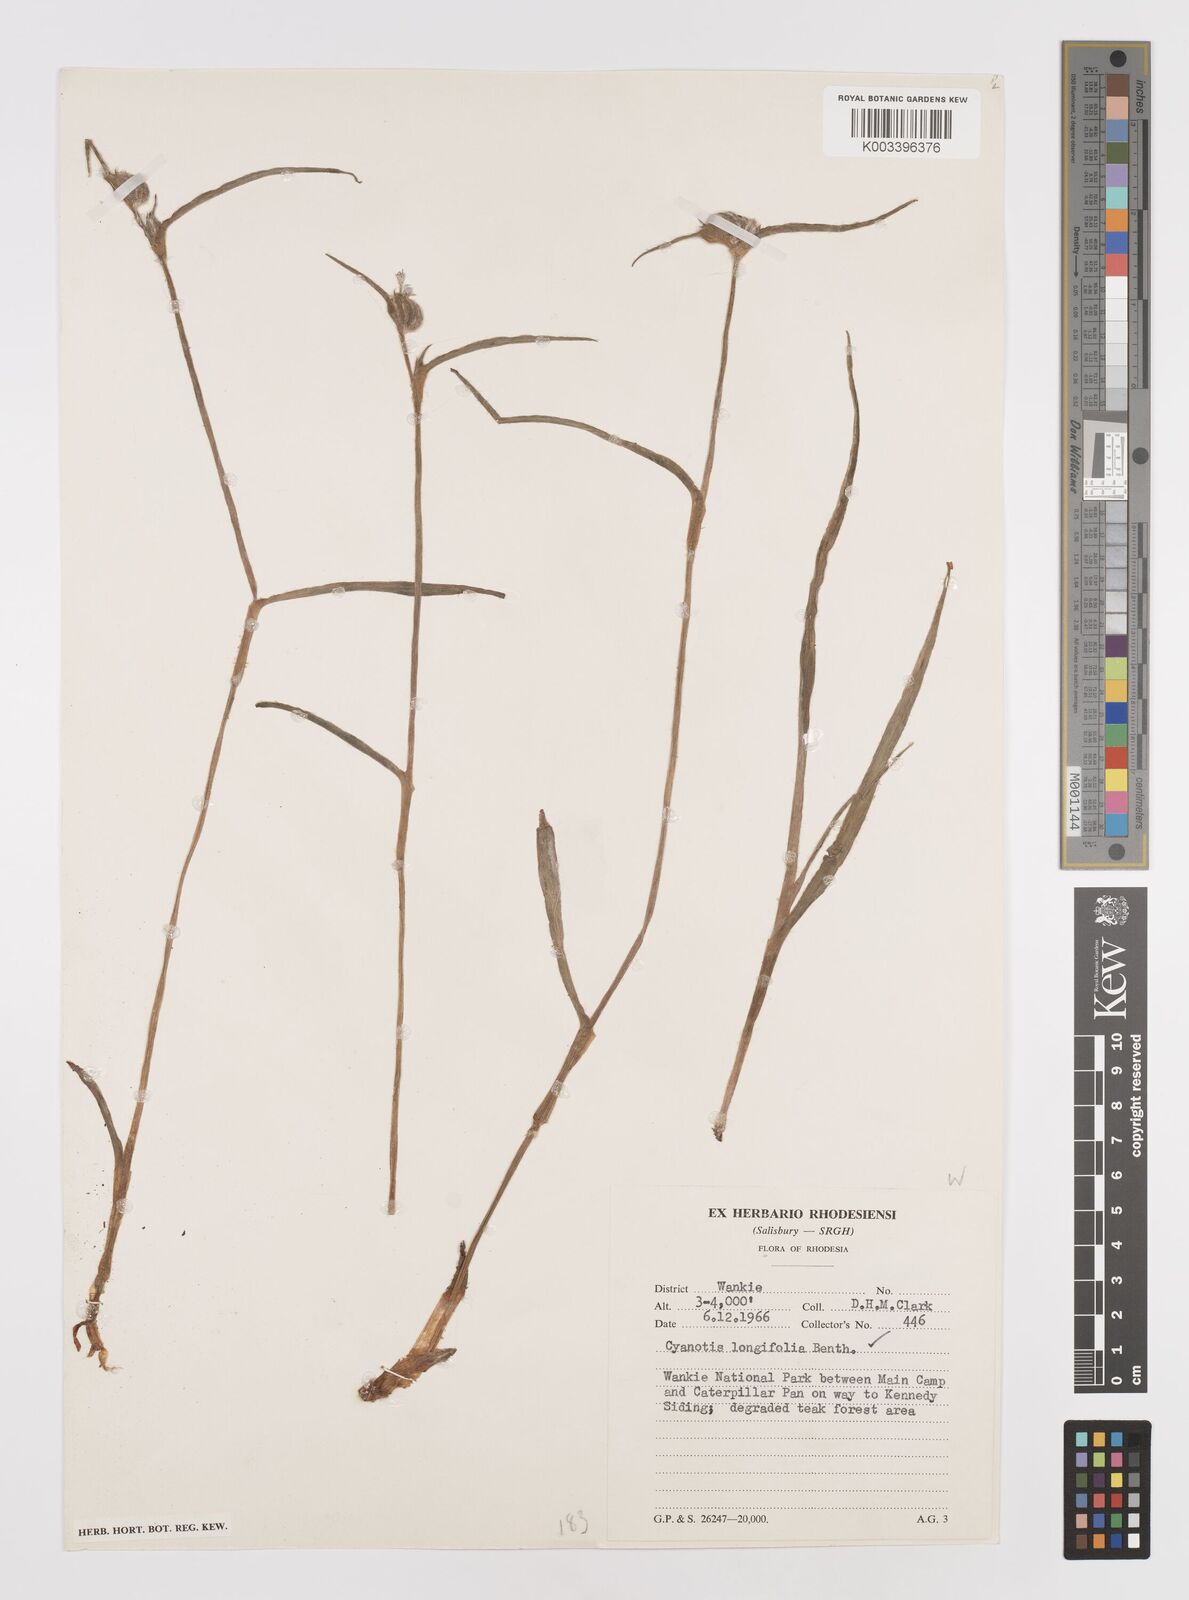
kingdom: Plantae
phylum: Tracheophyta
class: Liliopsida
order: Commelinales
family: Commelinaceae
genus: Cyanotis
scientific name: Cyanotis longifolia
